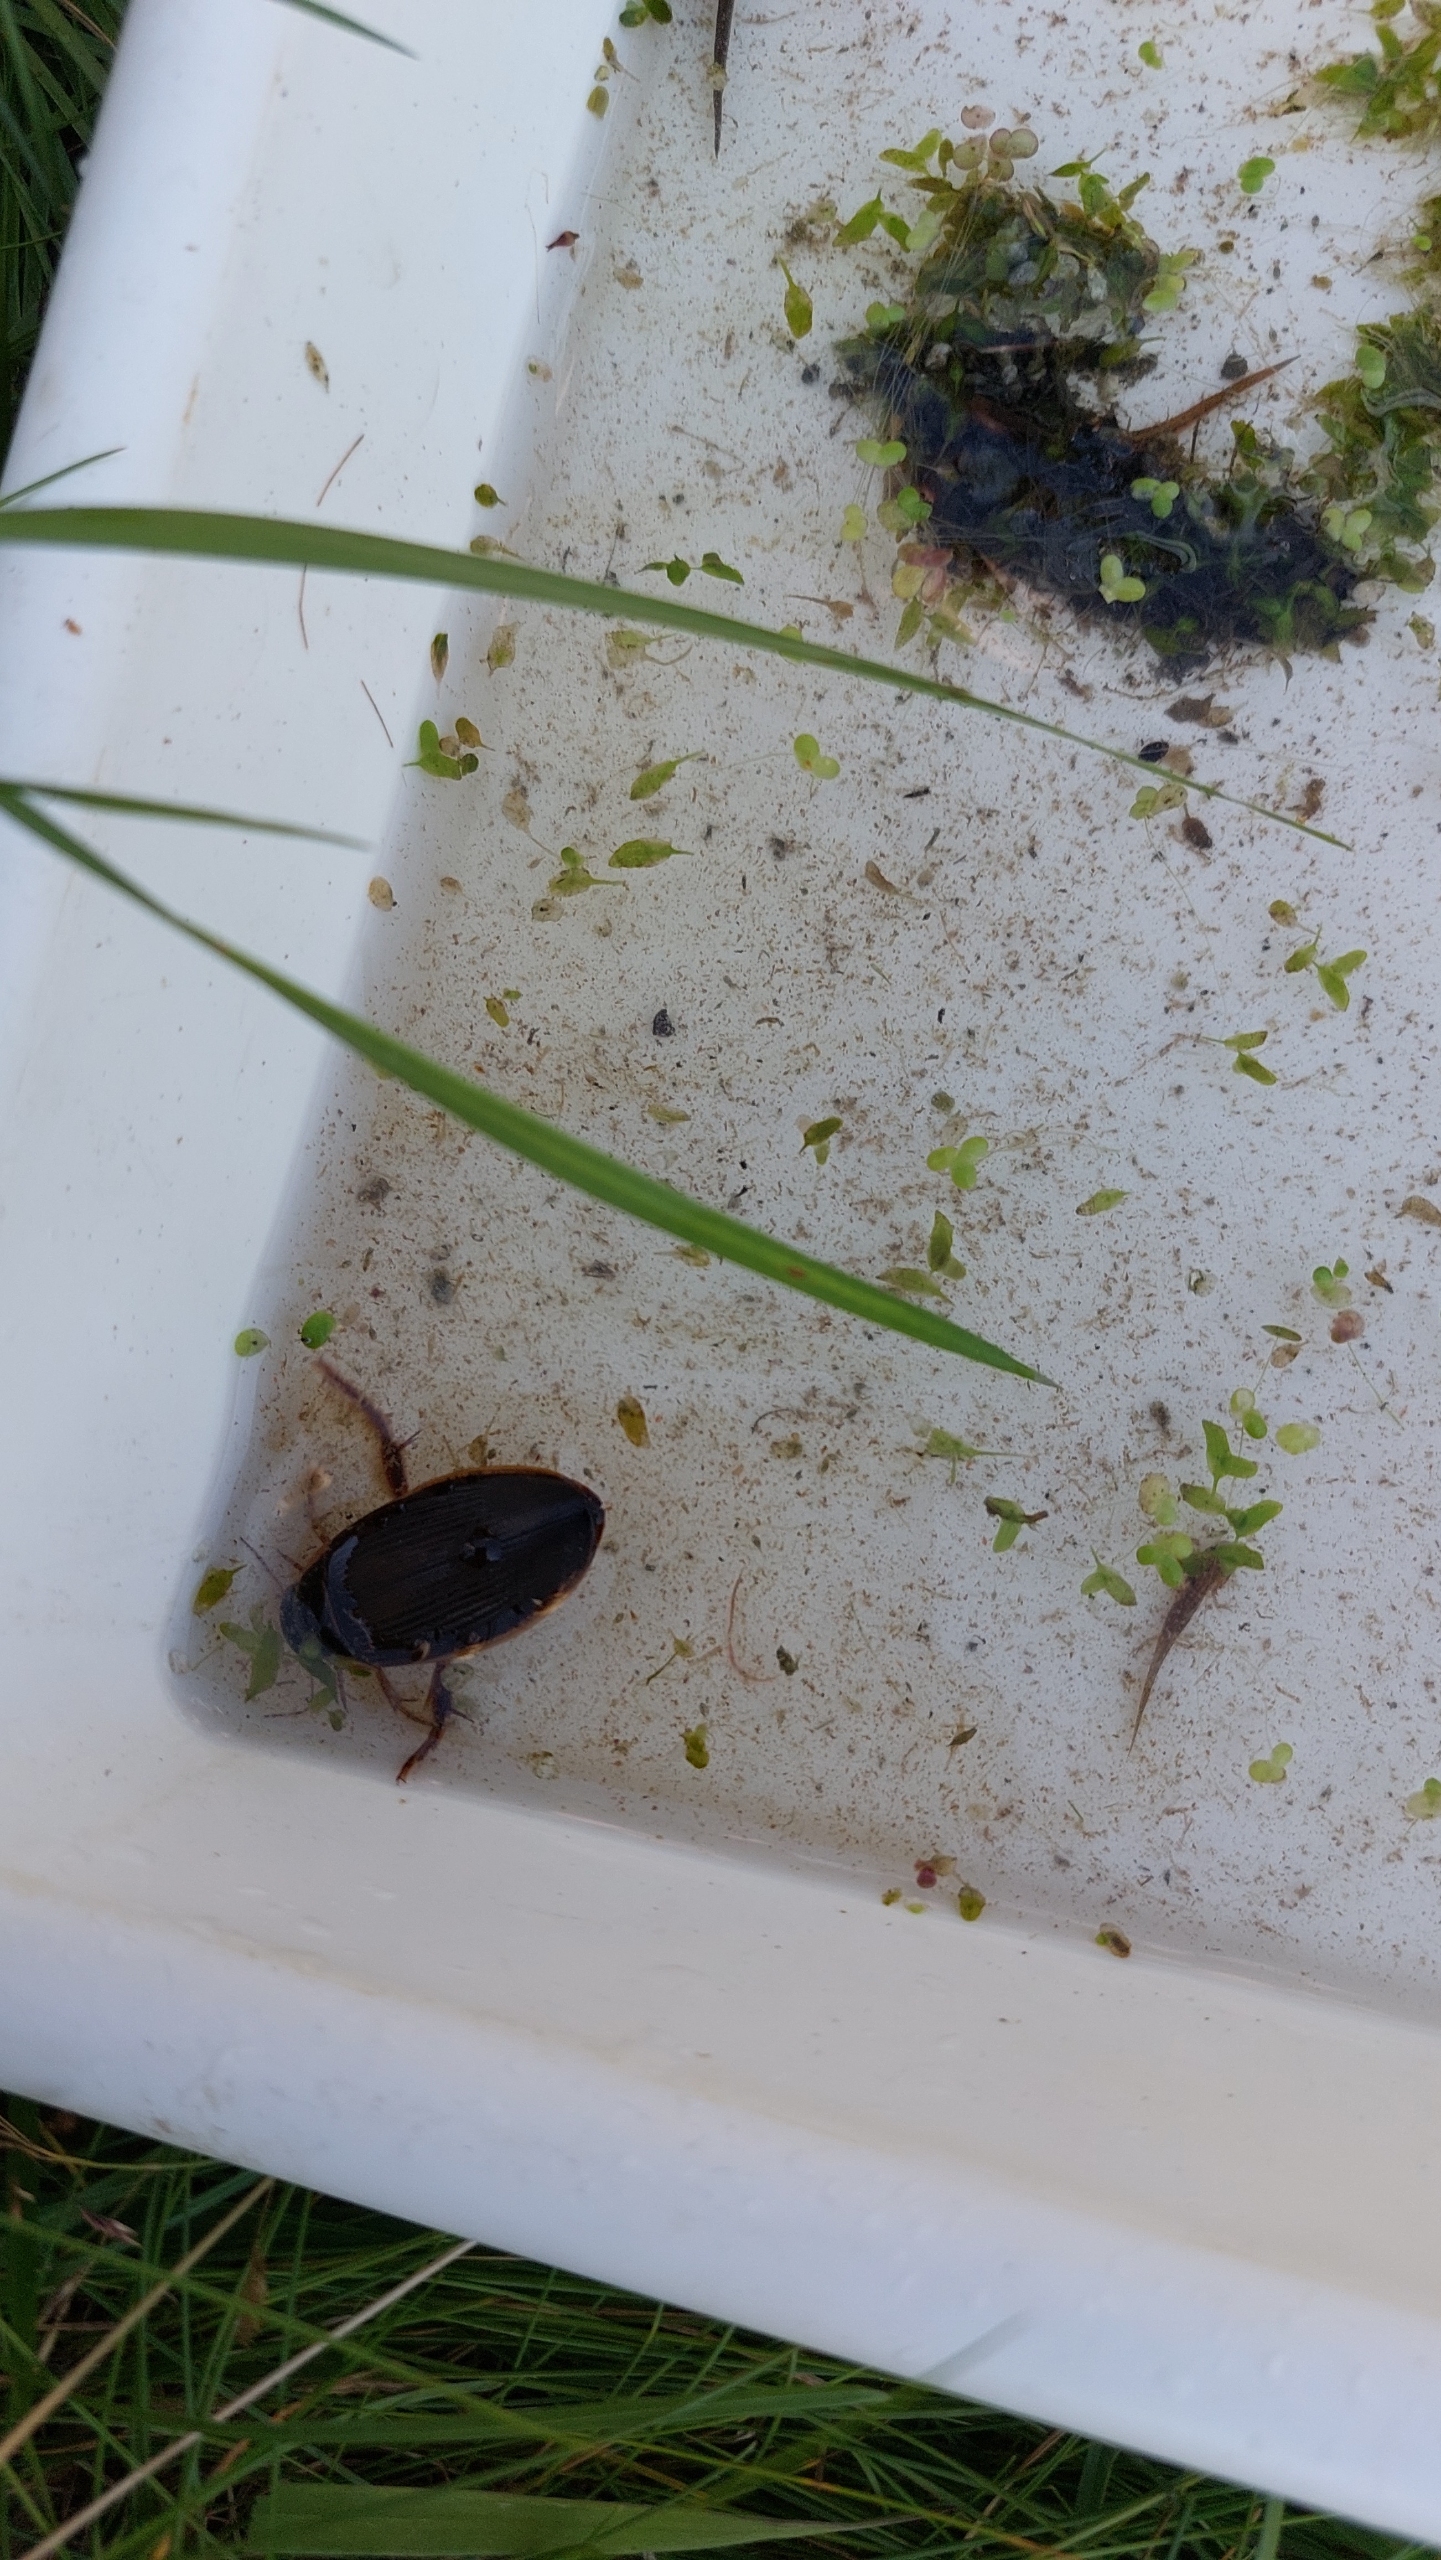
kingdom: Animalia
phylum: Arthropoda
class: Insecta
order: Coleoptera
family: Dytiscidae
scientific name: Dytiscidae
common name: Vandkalve
